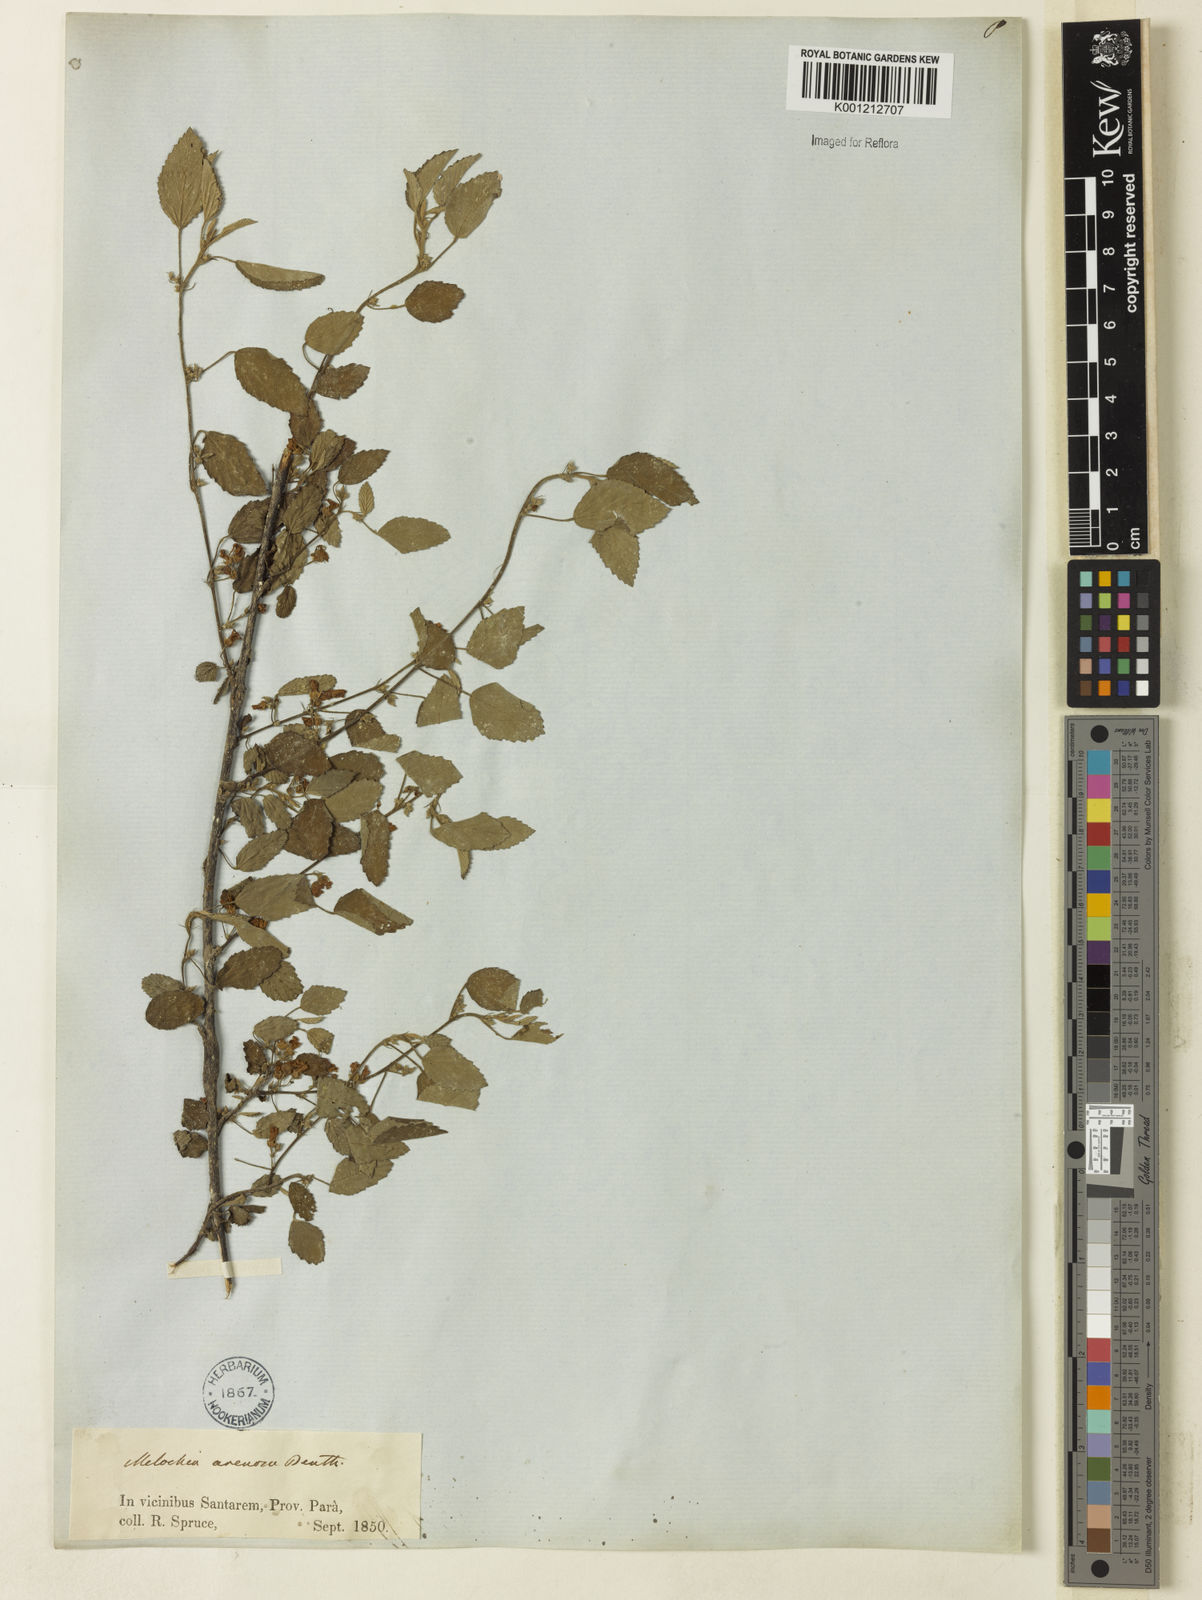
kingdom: Plantae
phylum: Tracheophyta
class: Magnoliopsida
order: Malvales
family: Malvaceae
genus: Melochia
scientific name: Melochia arenosa
